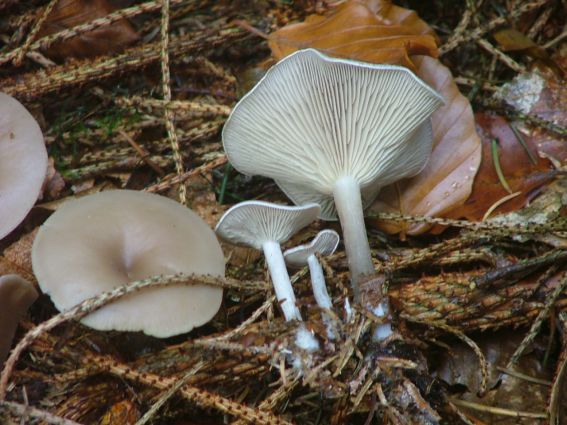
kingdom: Fungi
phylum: Basidiomycota
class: Agaricomycetes
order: Agaricales
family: Tricholomataceae
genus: Clitocybe
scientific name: Clitocybe metachroa
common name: grå tragthat
